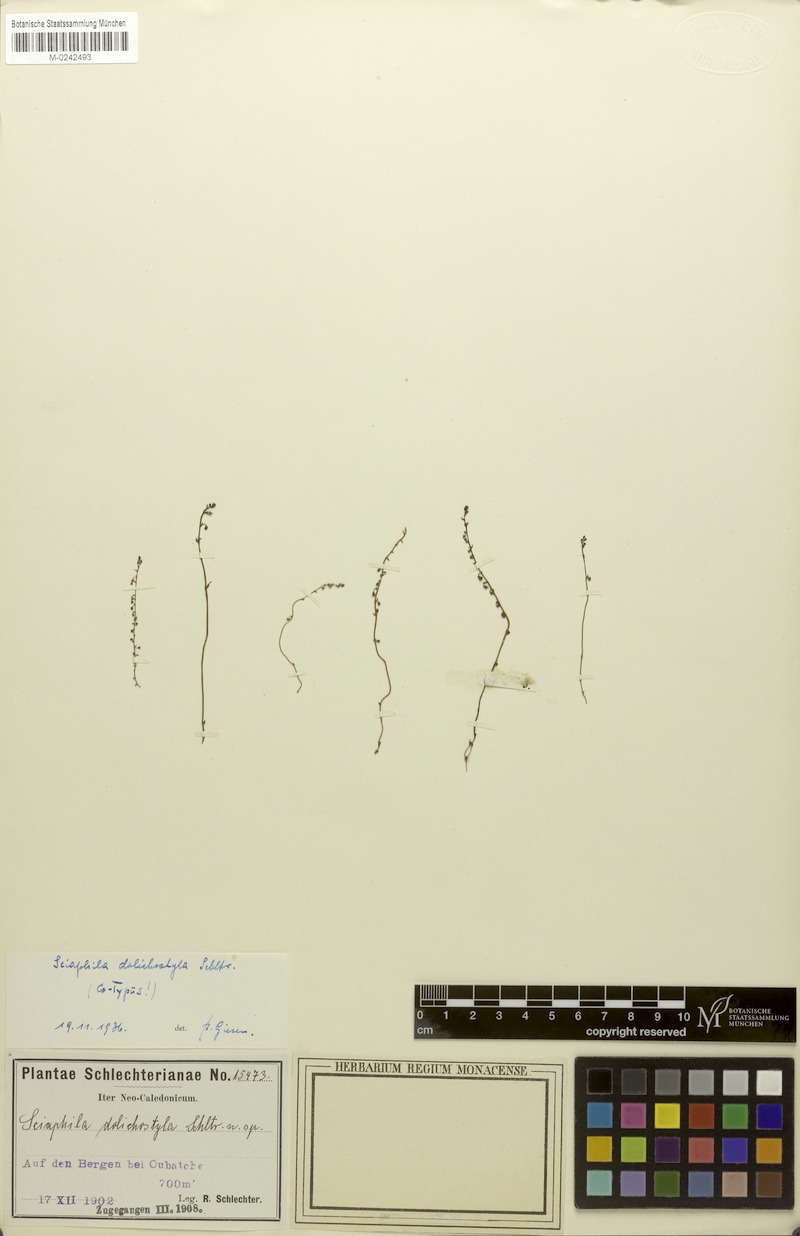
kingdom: Plantae
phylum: Tracheophyta
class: Liliopsida
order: Pandanales
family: Triuridaceae
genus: Sciaphila
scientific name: Sciaphila corallophyton
